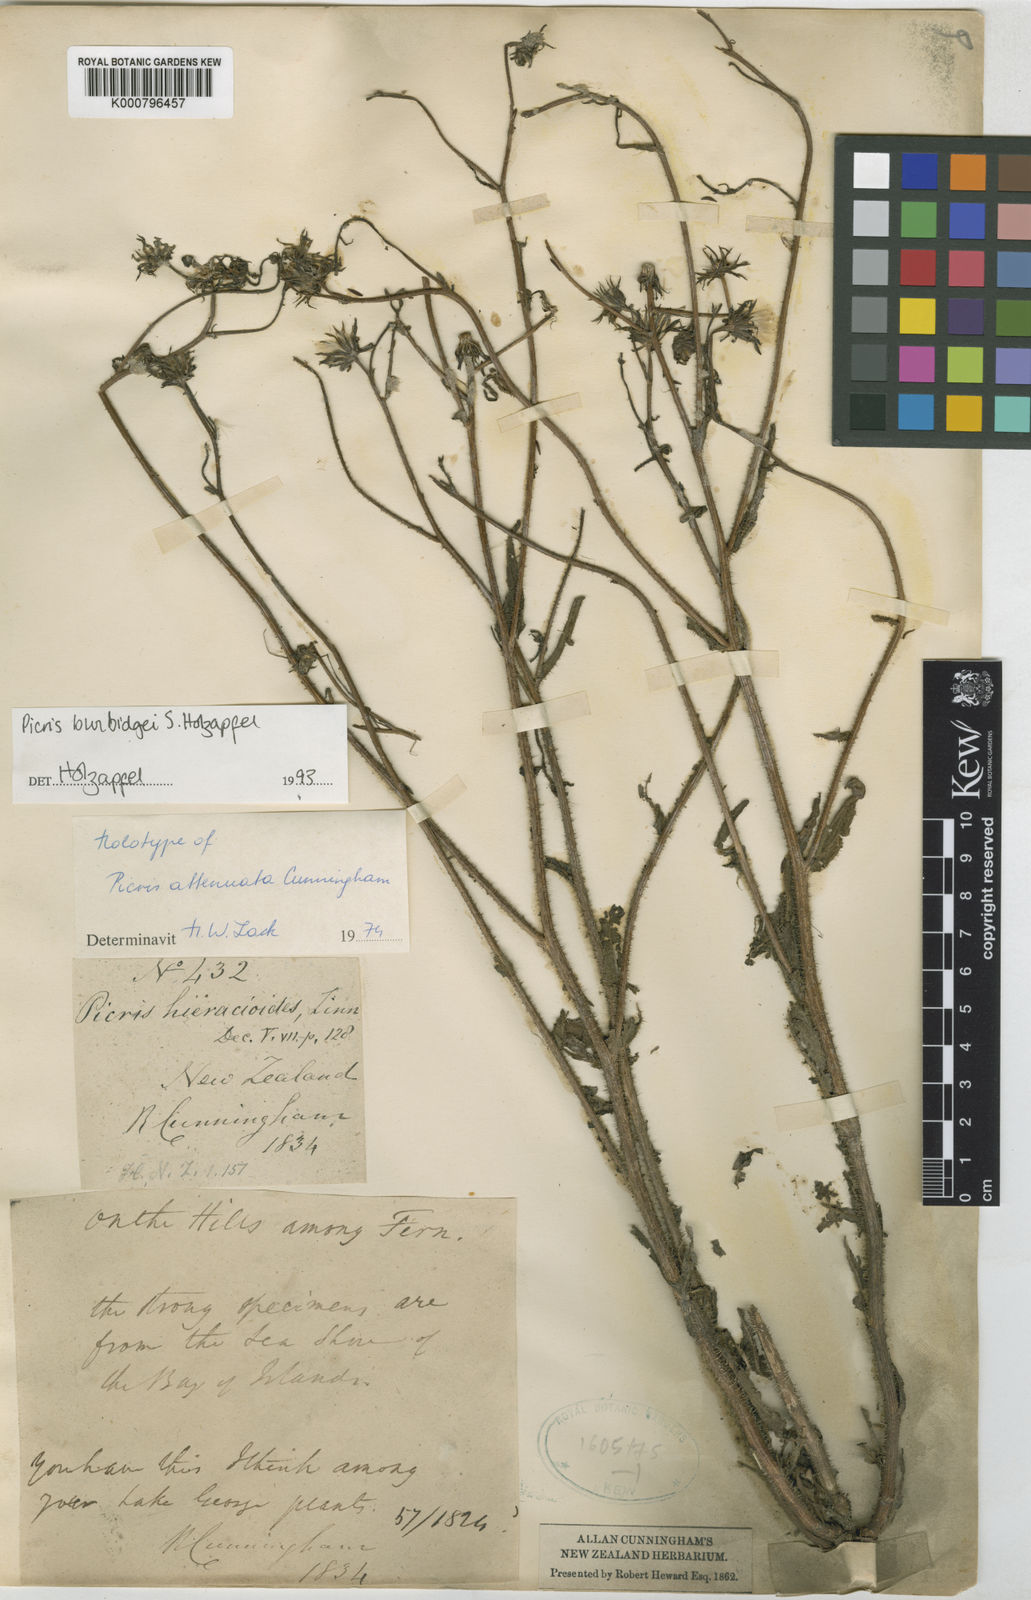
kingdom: Plantae
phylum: Tracheophyta
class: Magnoliopsida
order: Asterales
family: Asteraceae
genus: Picris
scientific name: Picris burbidgeae
